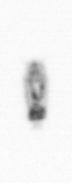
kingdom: Animalia
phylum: Arthropoda
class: Copepoda
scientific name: Copepoda
